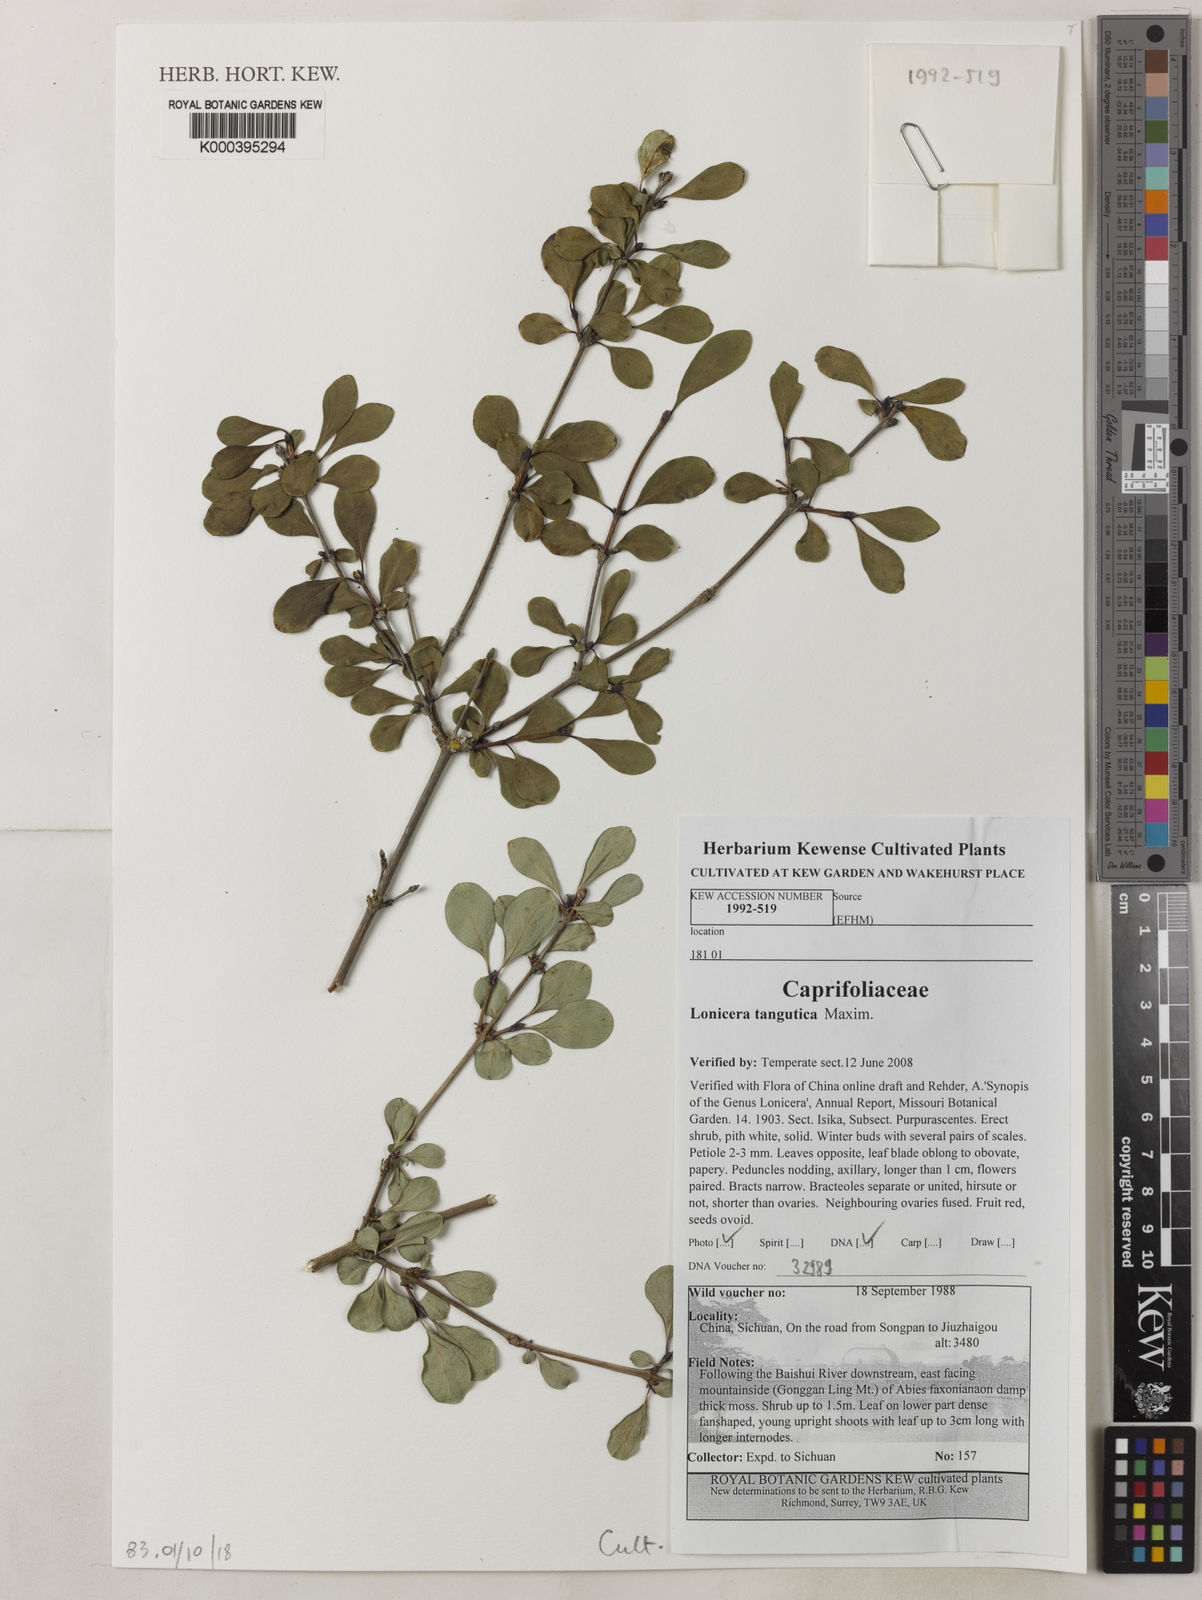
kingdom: Plantae
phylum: Tracheophyta
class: Magnoliopsida
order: Dipsacales
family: Caprifoliaceae
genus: Lonicera
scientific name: Lonicera tangutica
